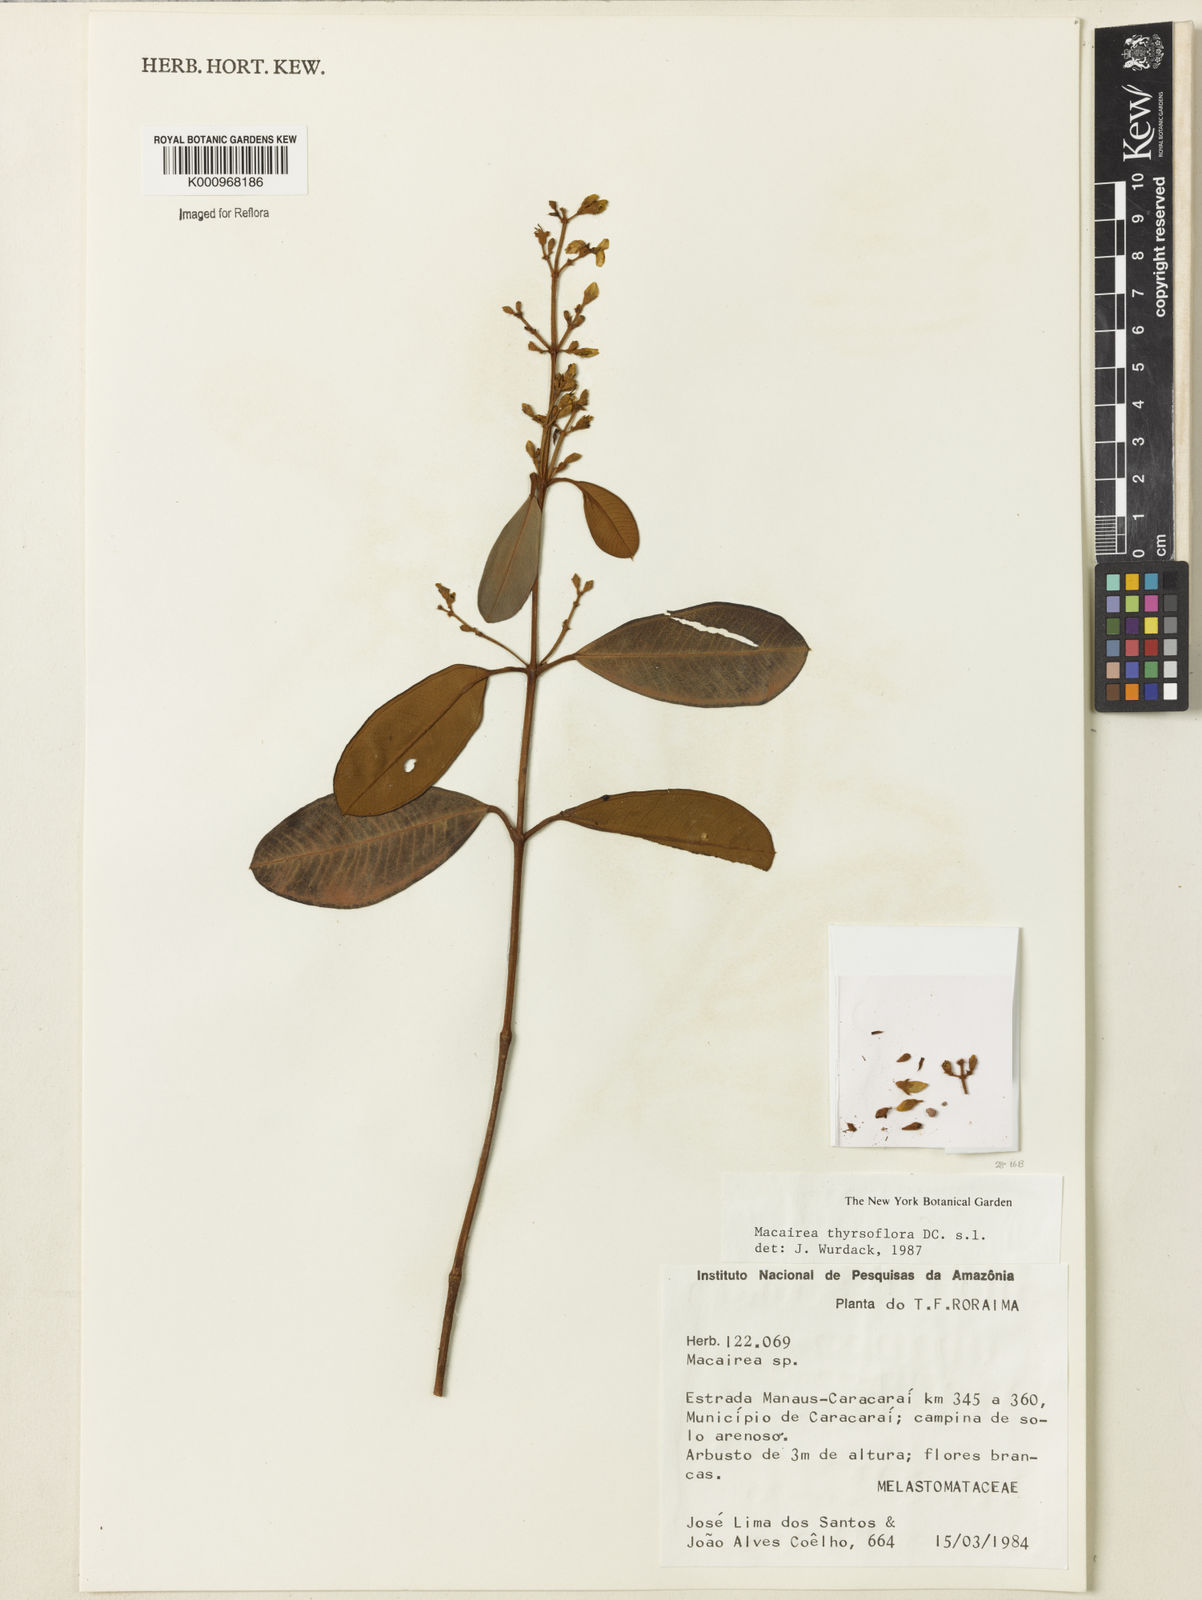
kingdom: Plantae
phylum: Tracheophyta
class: Magnoliopsida
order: Myrtales
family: Melastomataceae
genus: Macairea
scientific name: Macairea thyrsiflora
